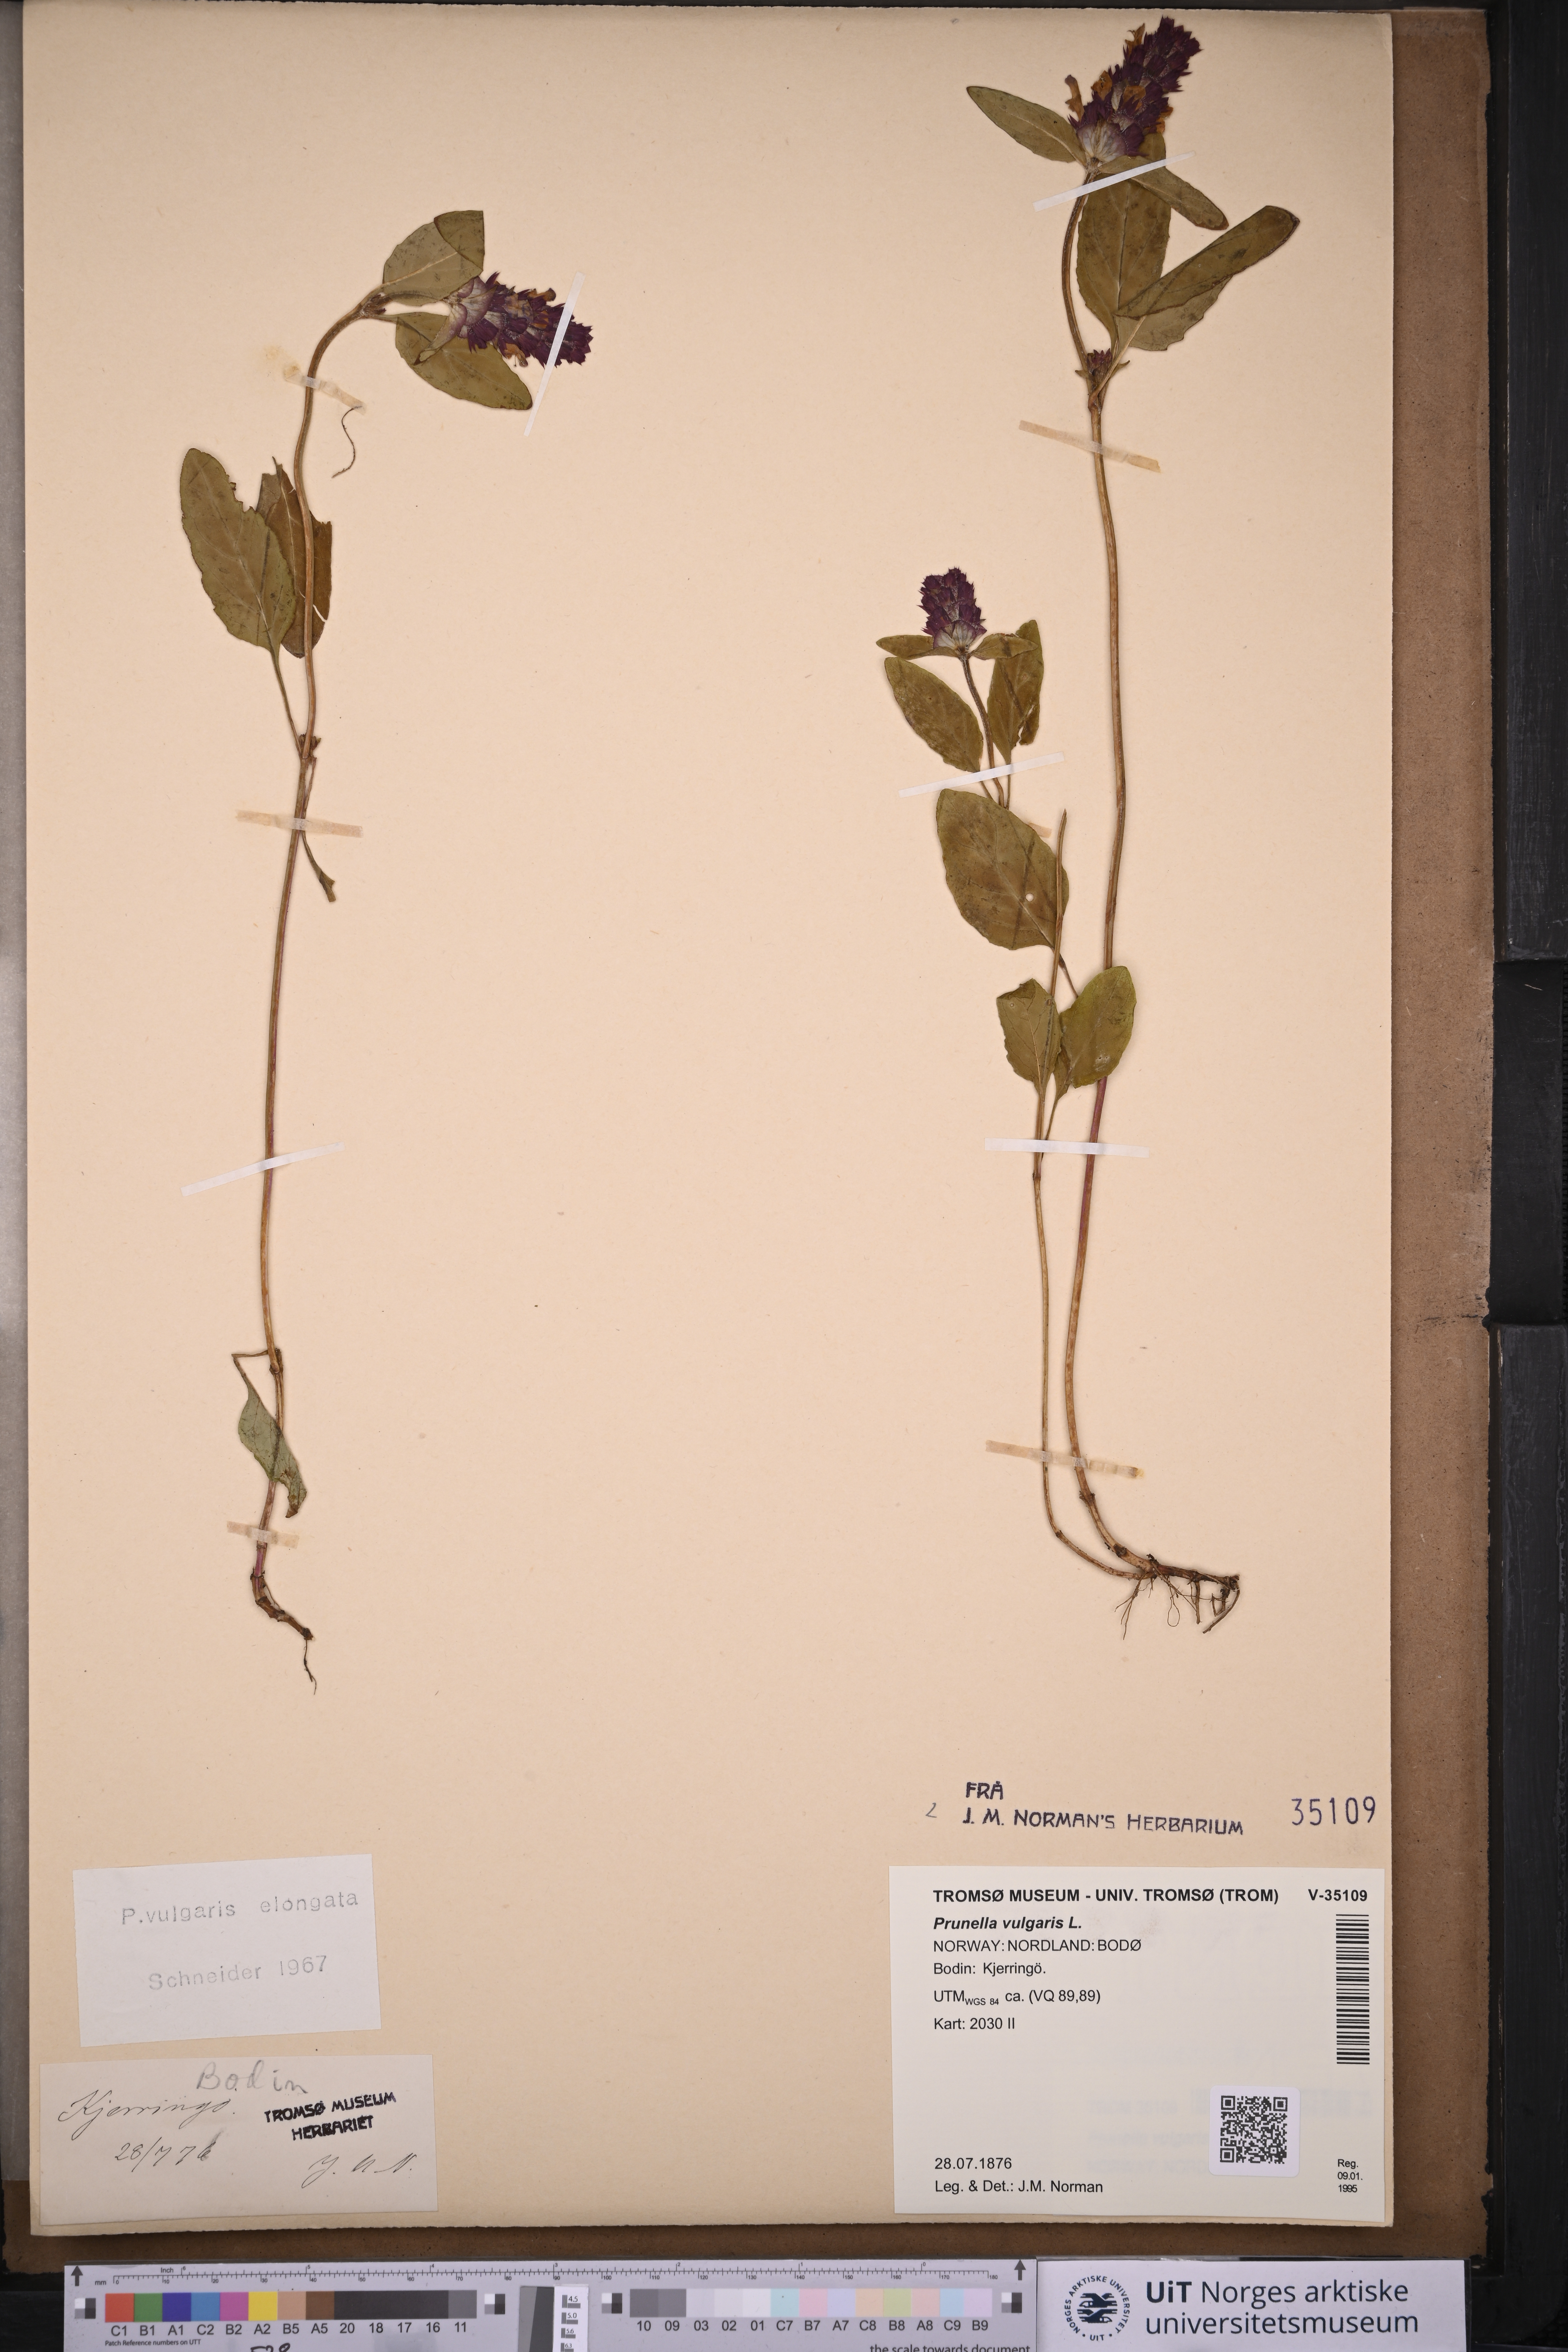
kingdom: Plantae
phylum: Tracheophyta
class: Magnoliopsida
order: Lamiales
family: Lamiaceae
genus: Prunella
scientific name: Prunella vulgaris
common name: Heal-all
